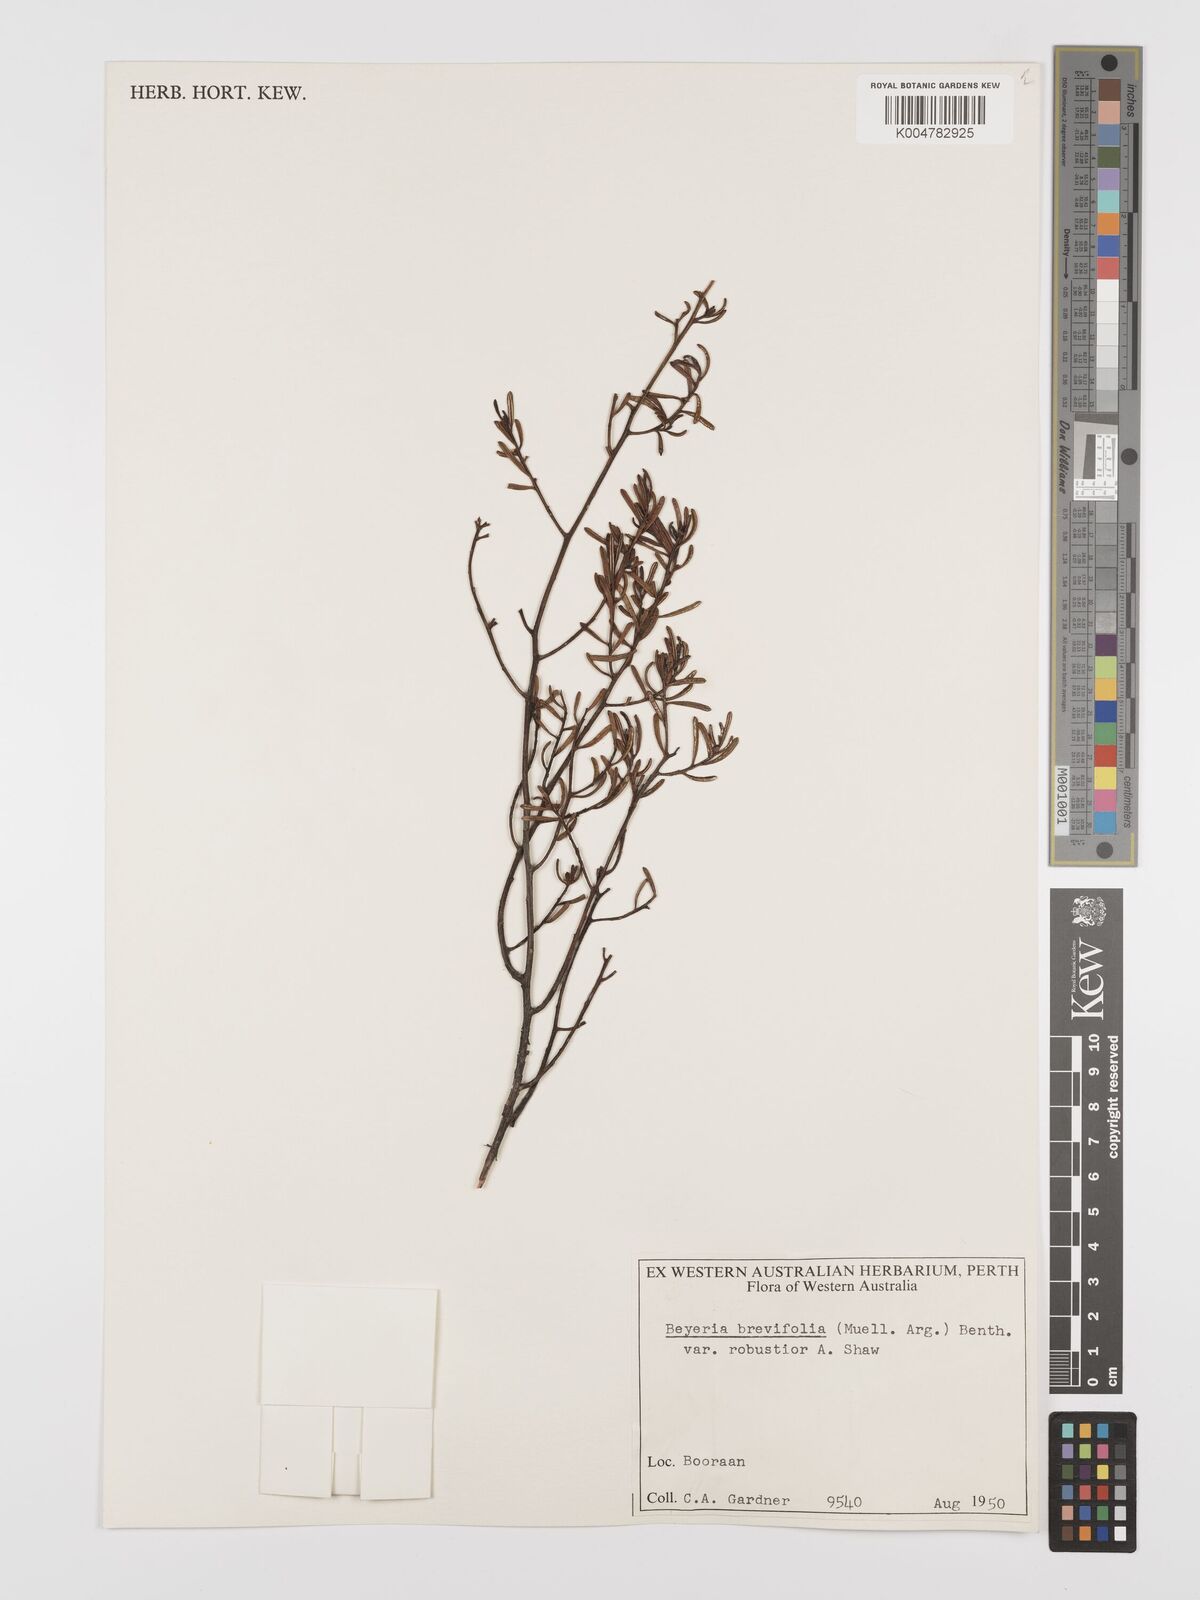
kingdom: Plantae
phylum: Tracheophyta
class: Magnoliopsida
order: Malpighiales
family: Euphorbiaceae
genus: Beyeria
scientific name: Beyeria sulcata
